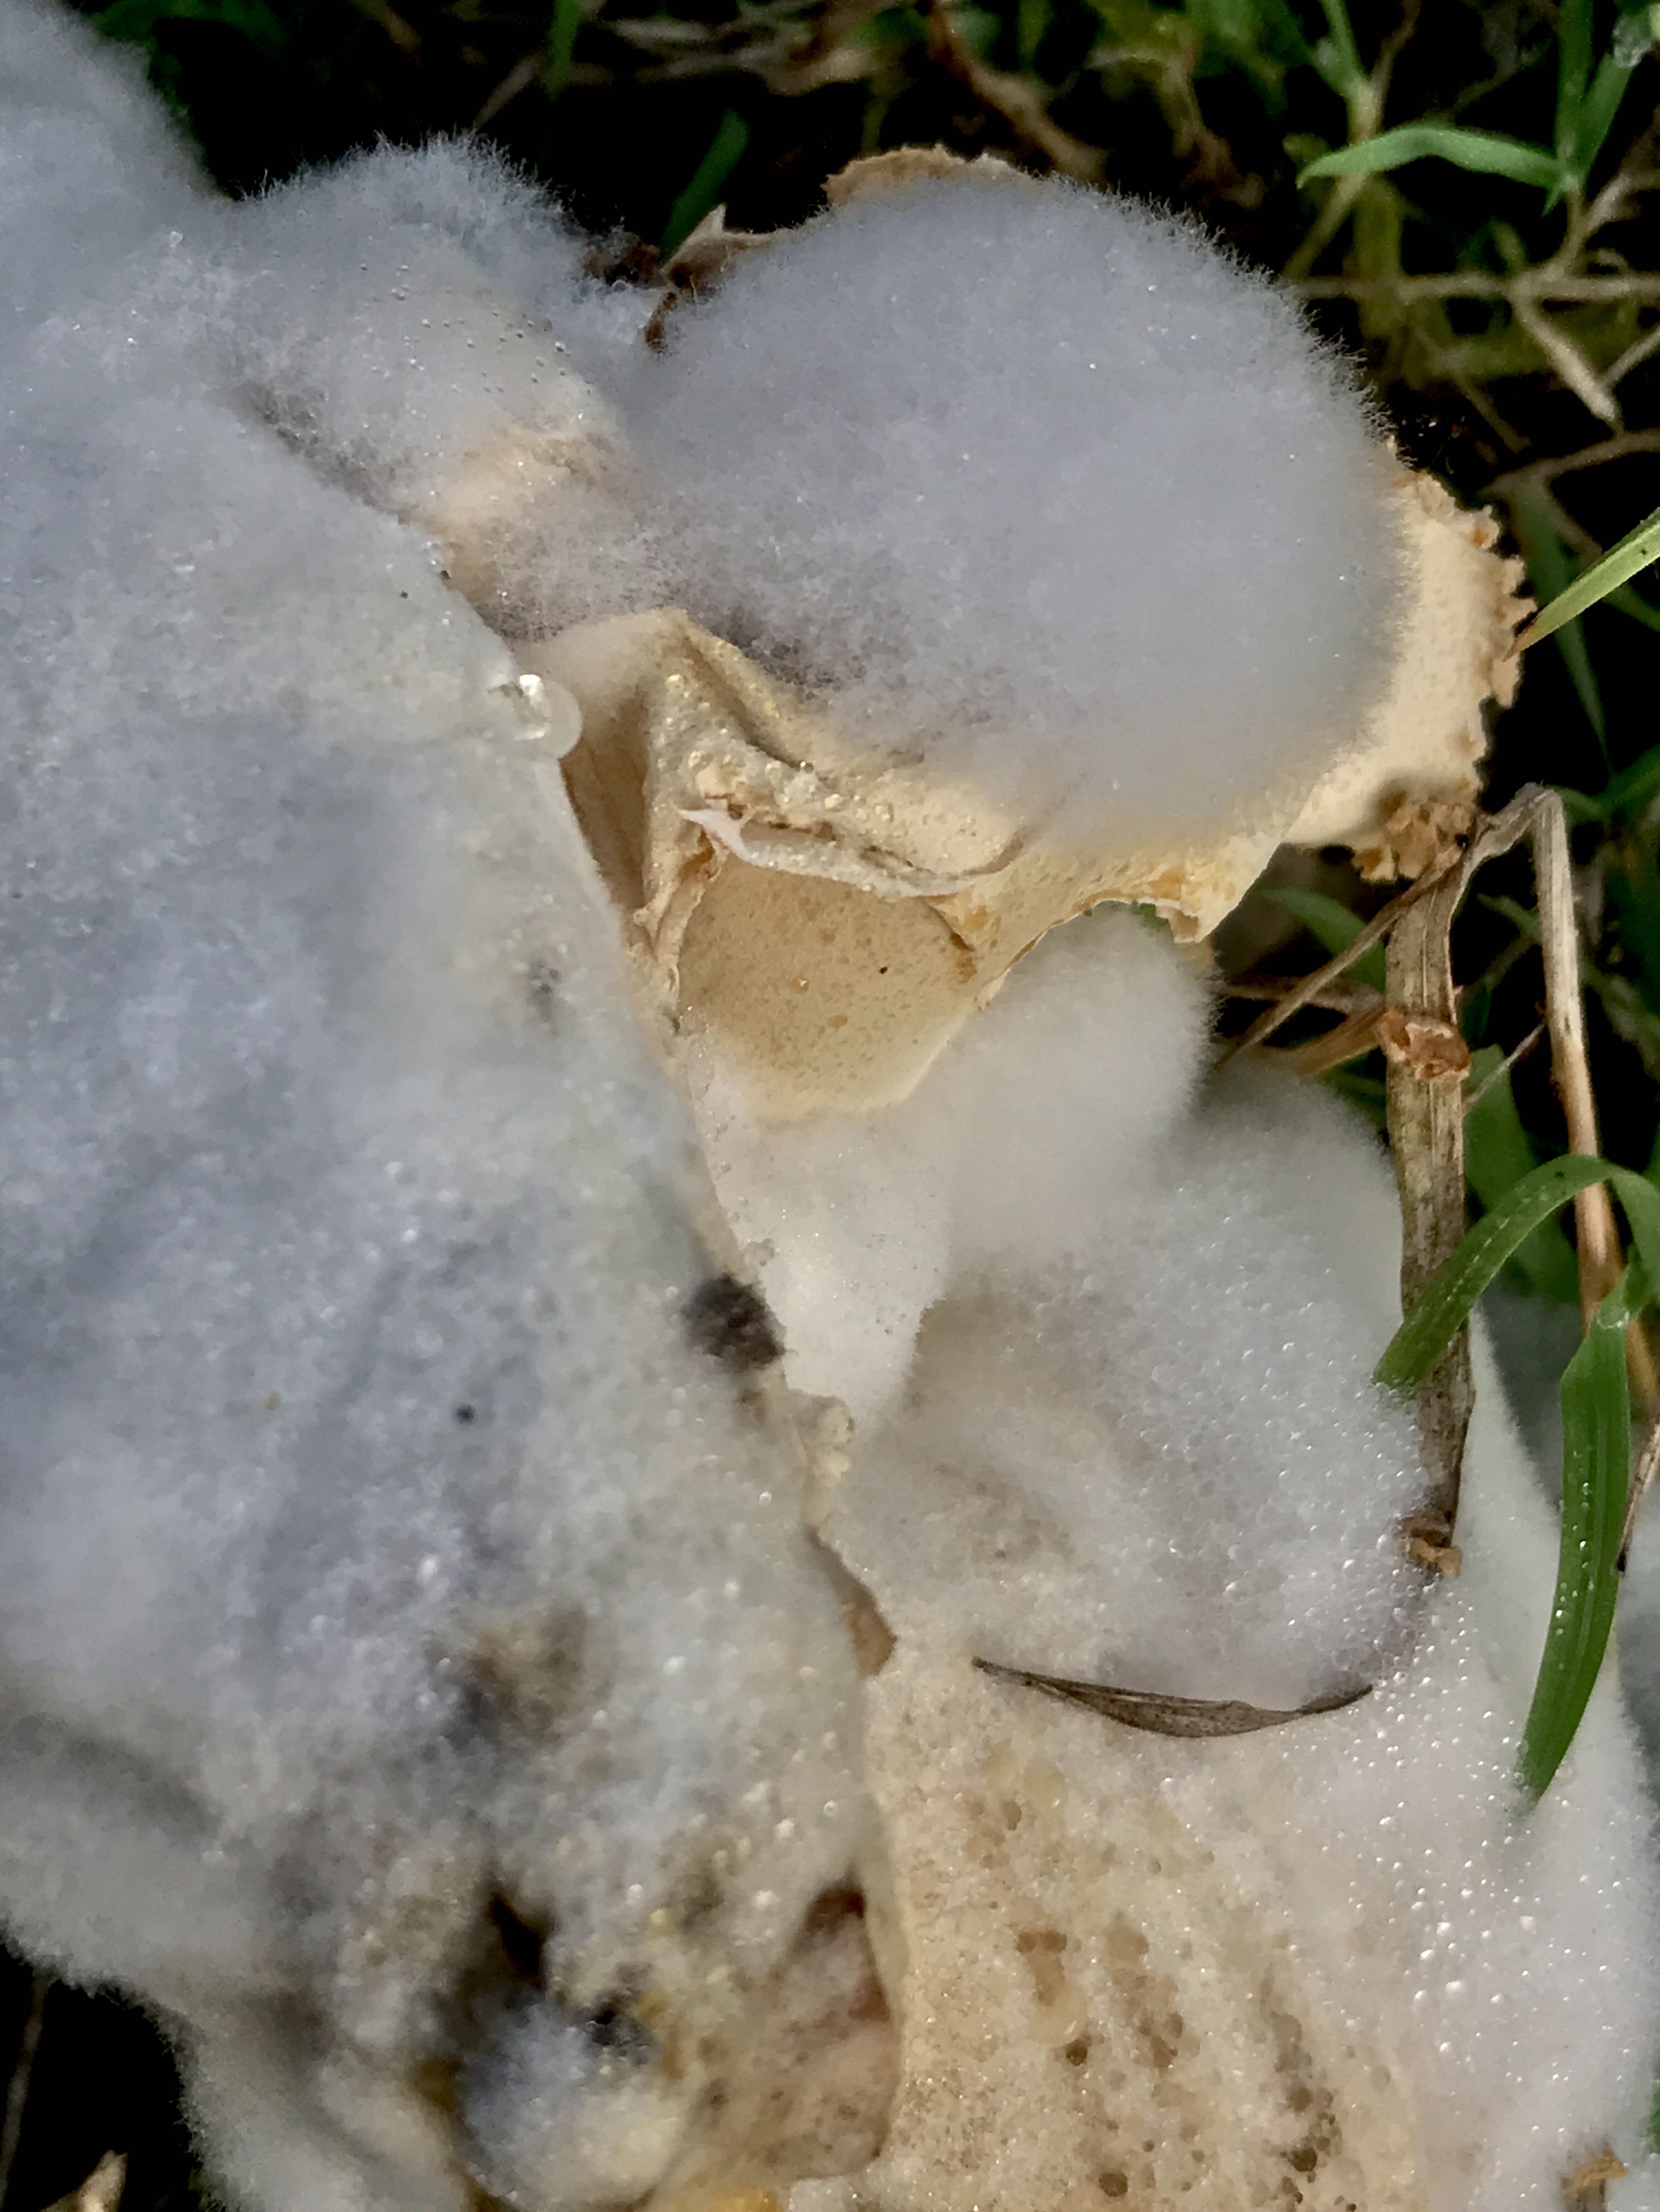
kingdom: Fungi
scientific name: Fungi
